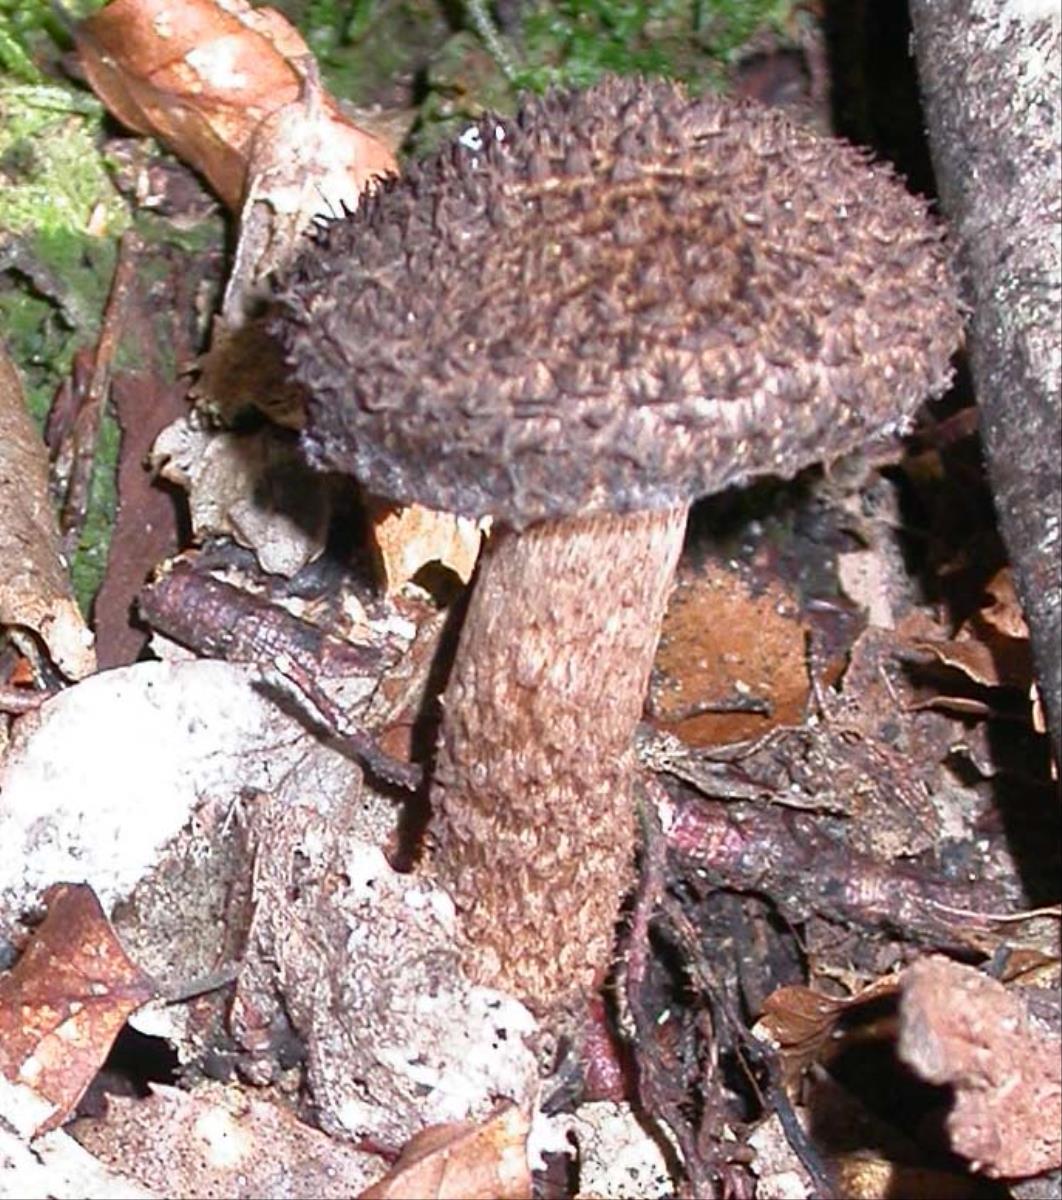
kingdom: Fungi
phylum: Basidiomycota
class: Agaricomycetes
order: Agaricales
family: Inocybaceae
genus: Inocybe
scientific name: Inocybe strobilomyces
